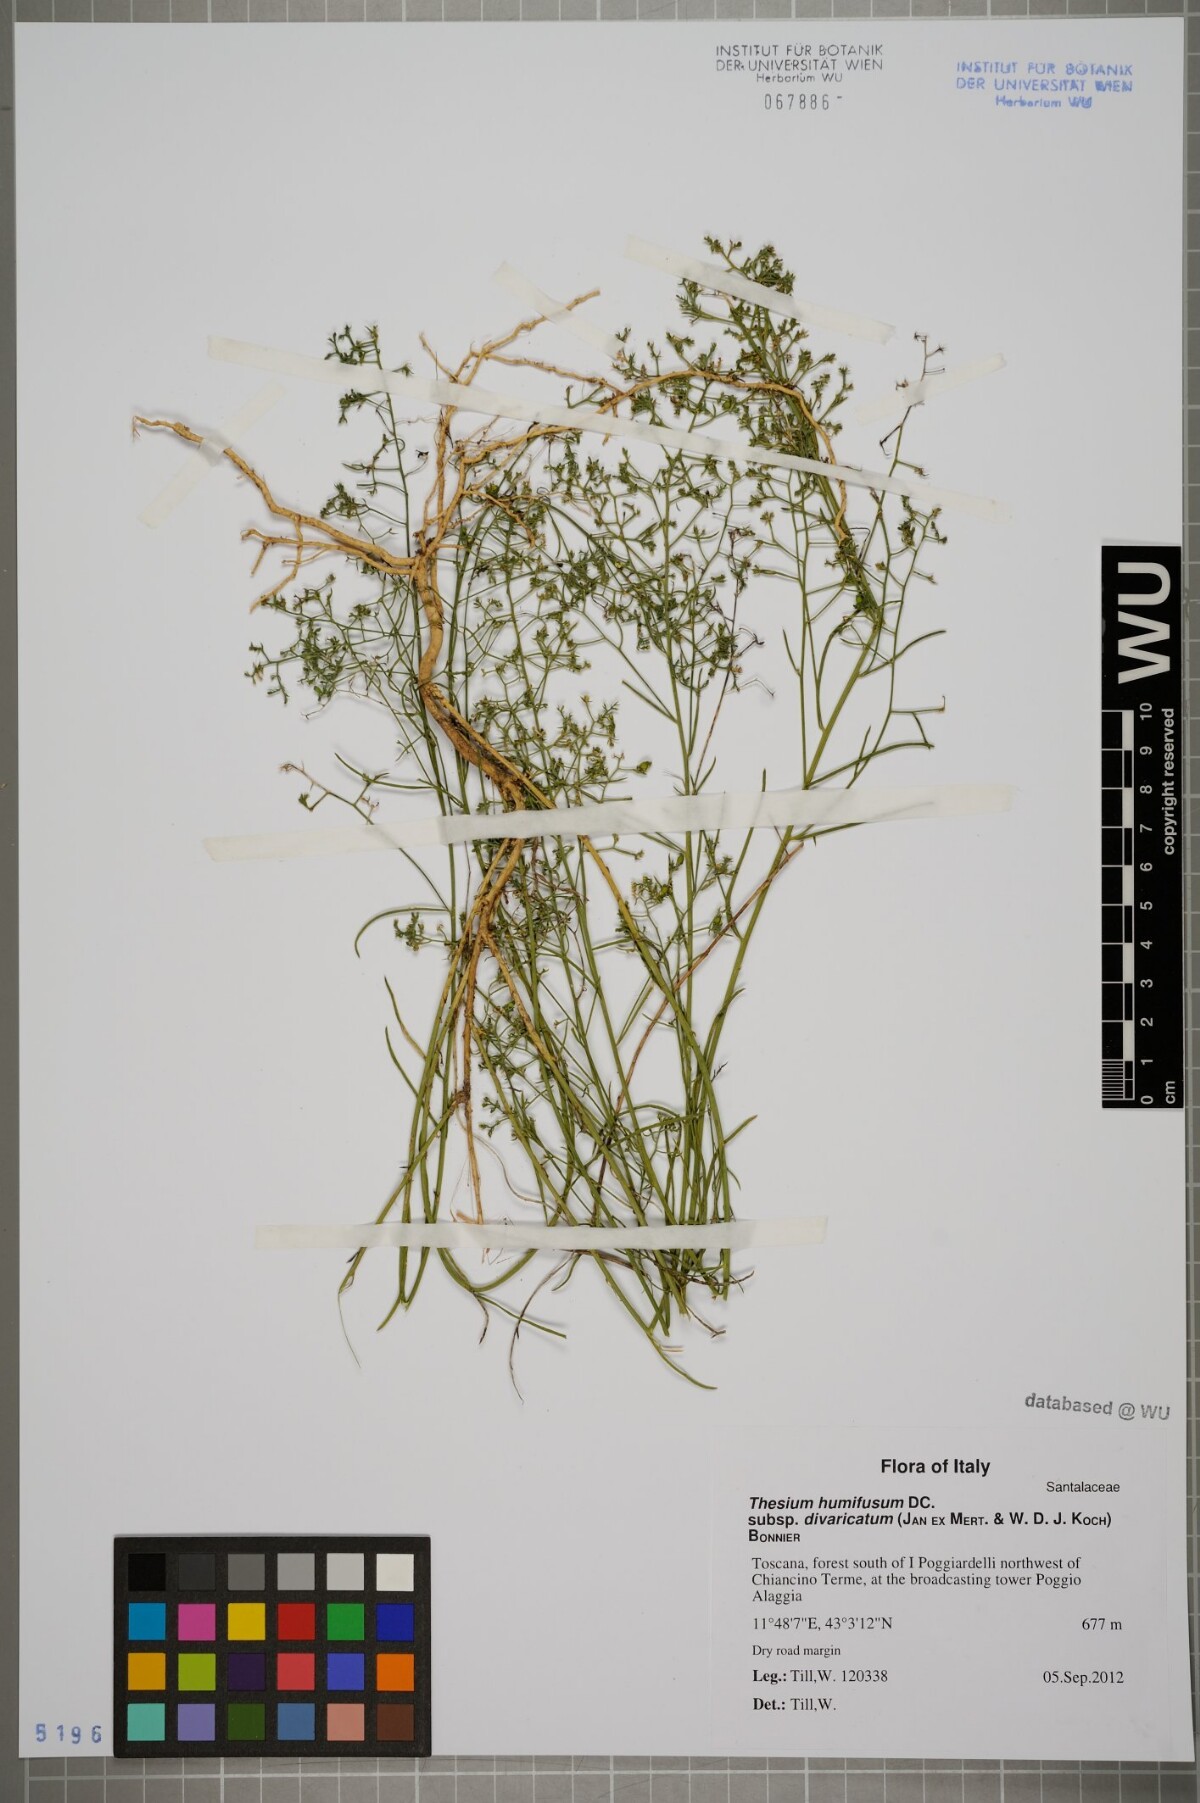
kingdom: Plantae
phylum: Tracheophyta
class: Magnoliopsida
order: Santalales
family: Thesiaceae
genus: Thesium
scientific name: Thesium divaricatum
